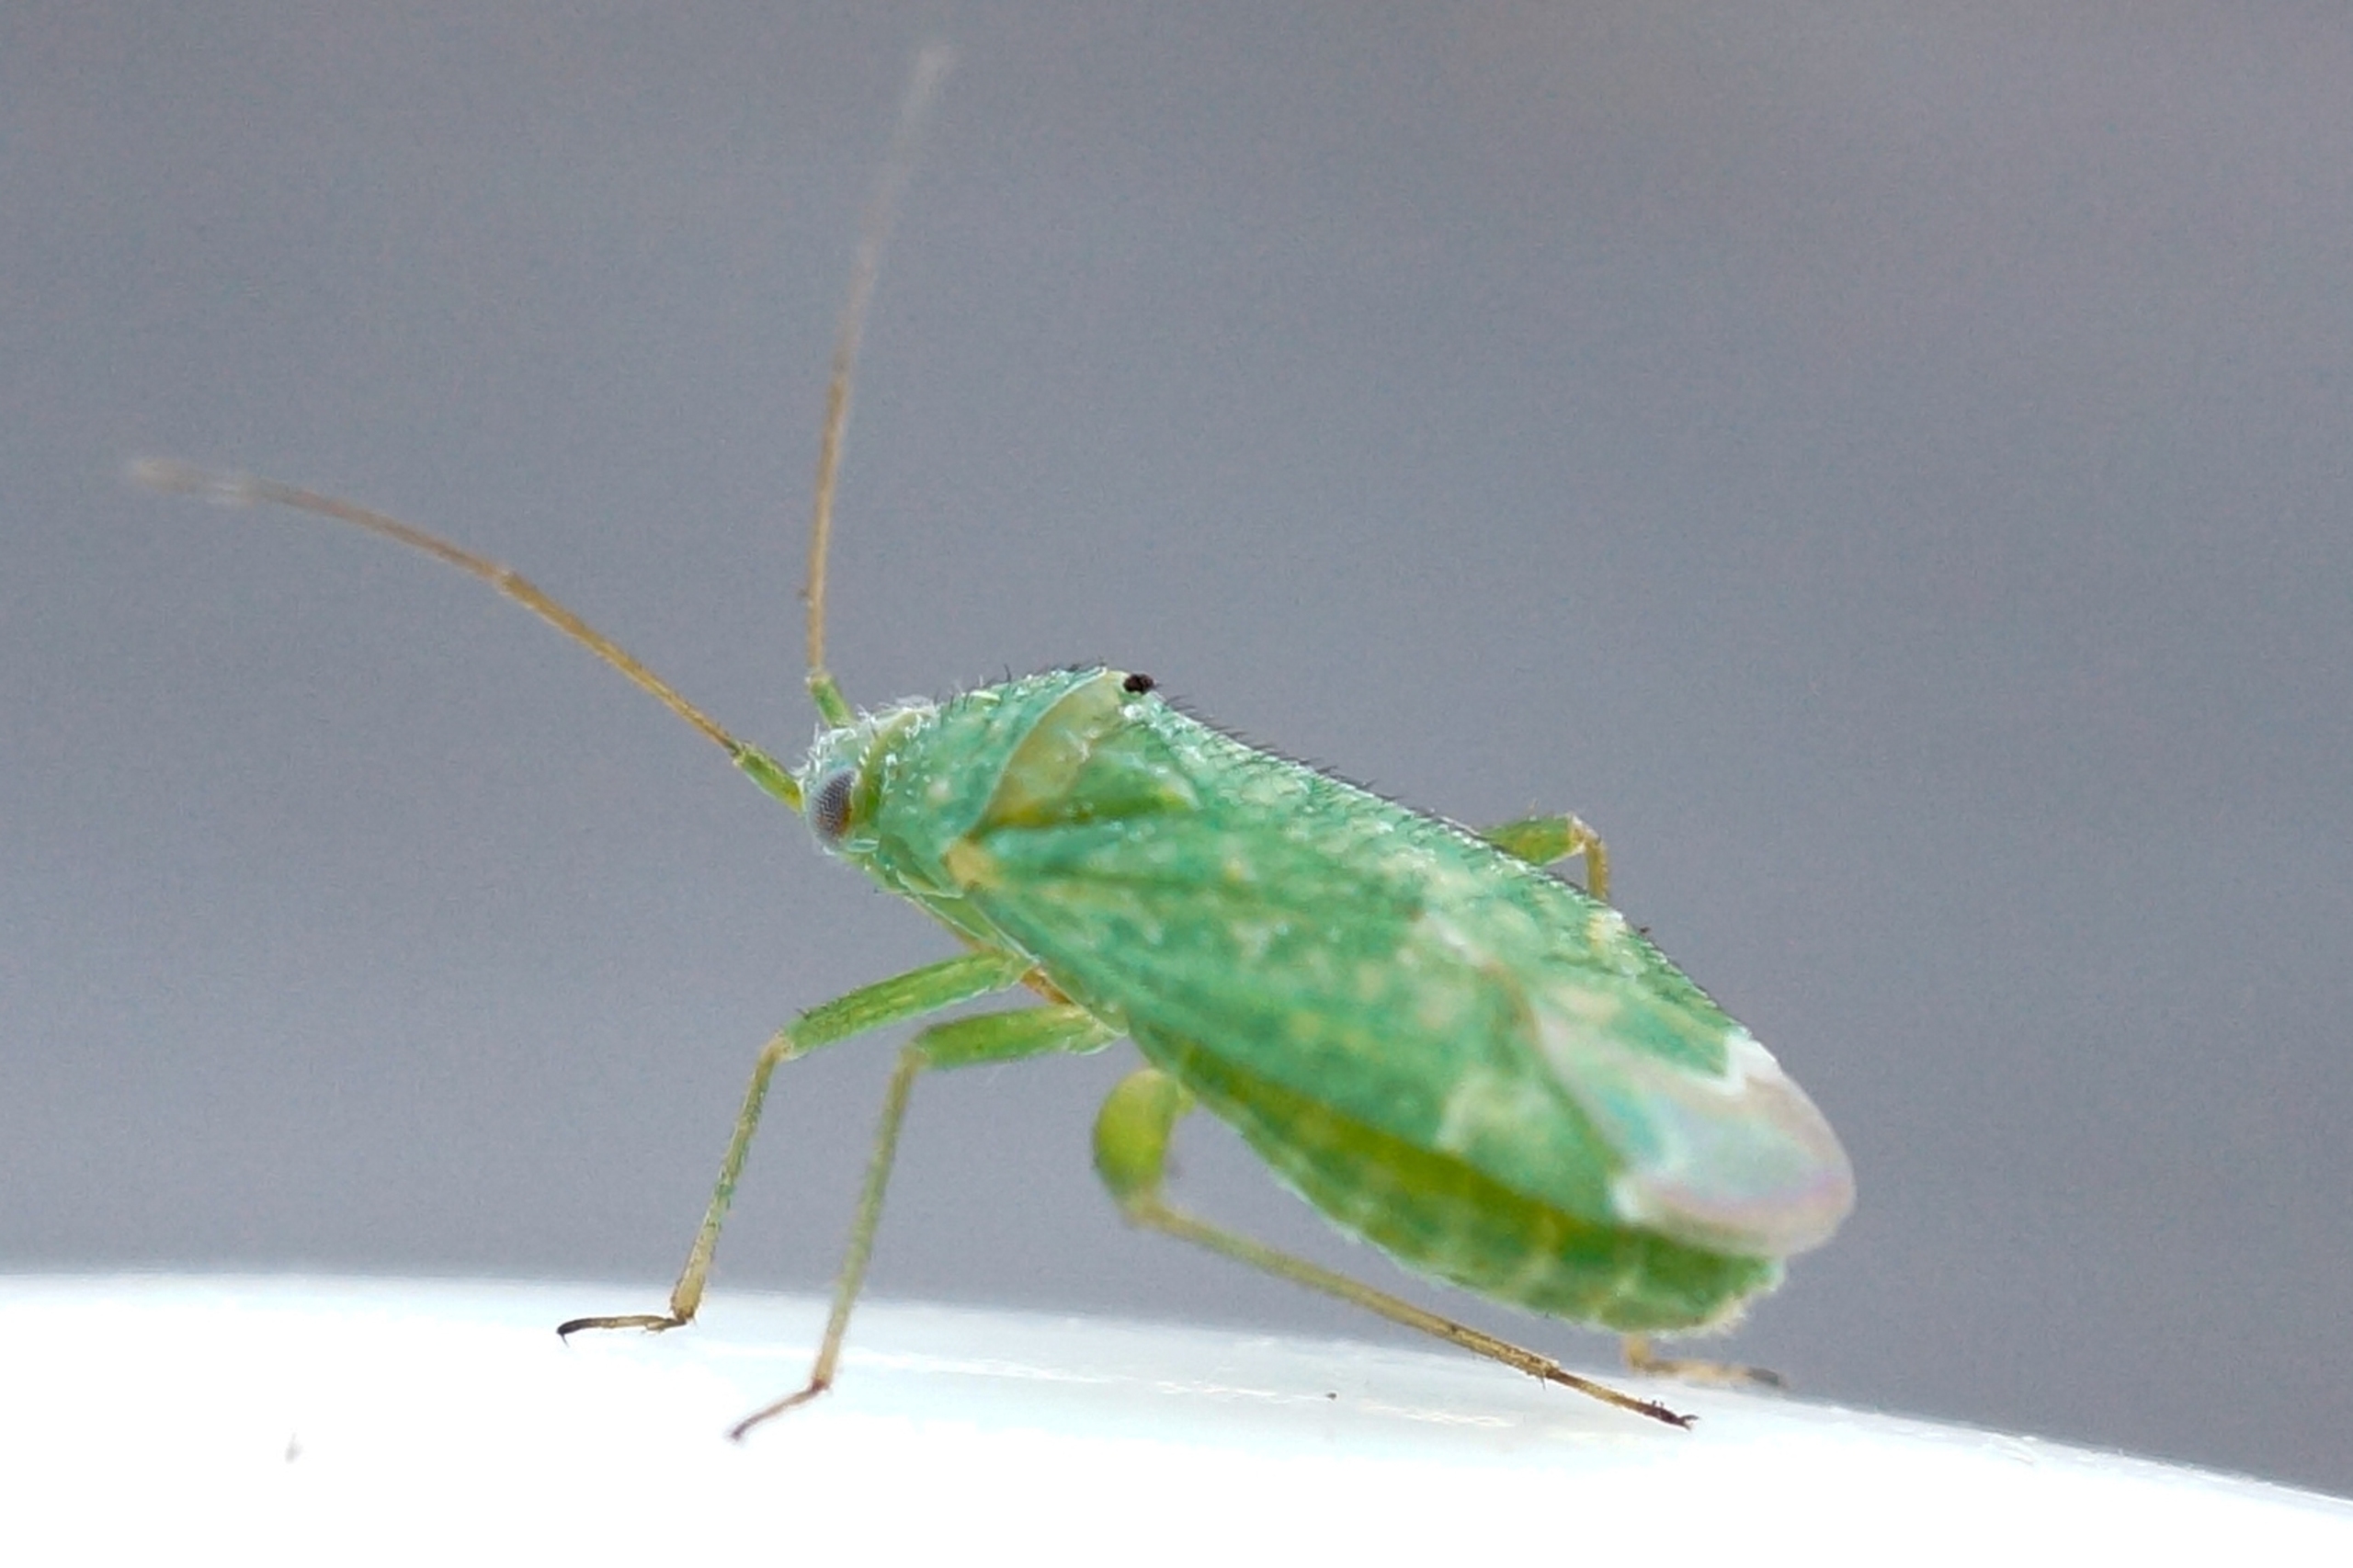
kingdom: Animalia
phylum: Arthropoda
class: Insecta
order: Hemiptera
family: Miridae
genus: Orthotylus
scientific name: Orthotylus flavosparsus
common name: Salturtblomstertæge
